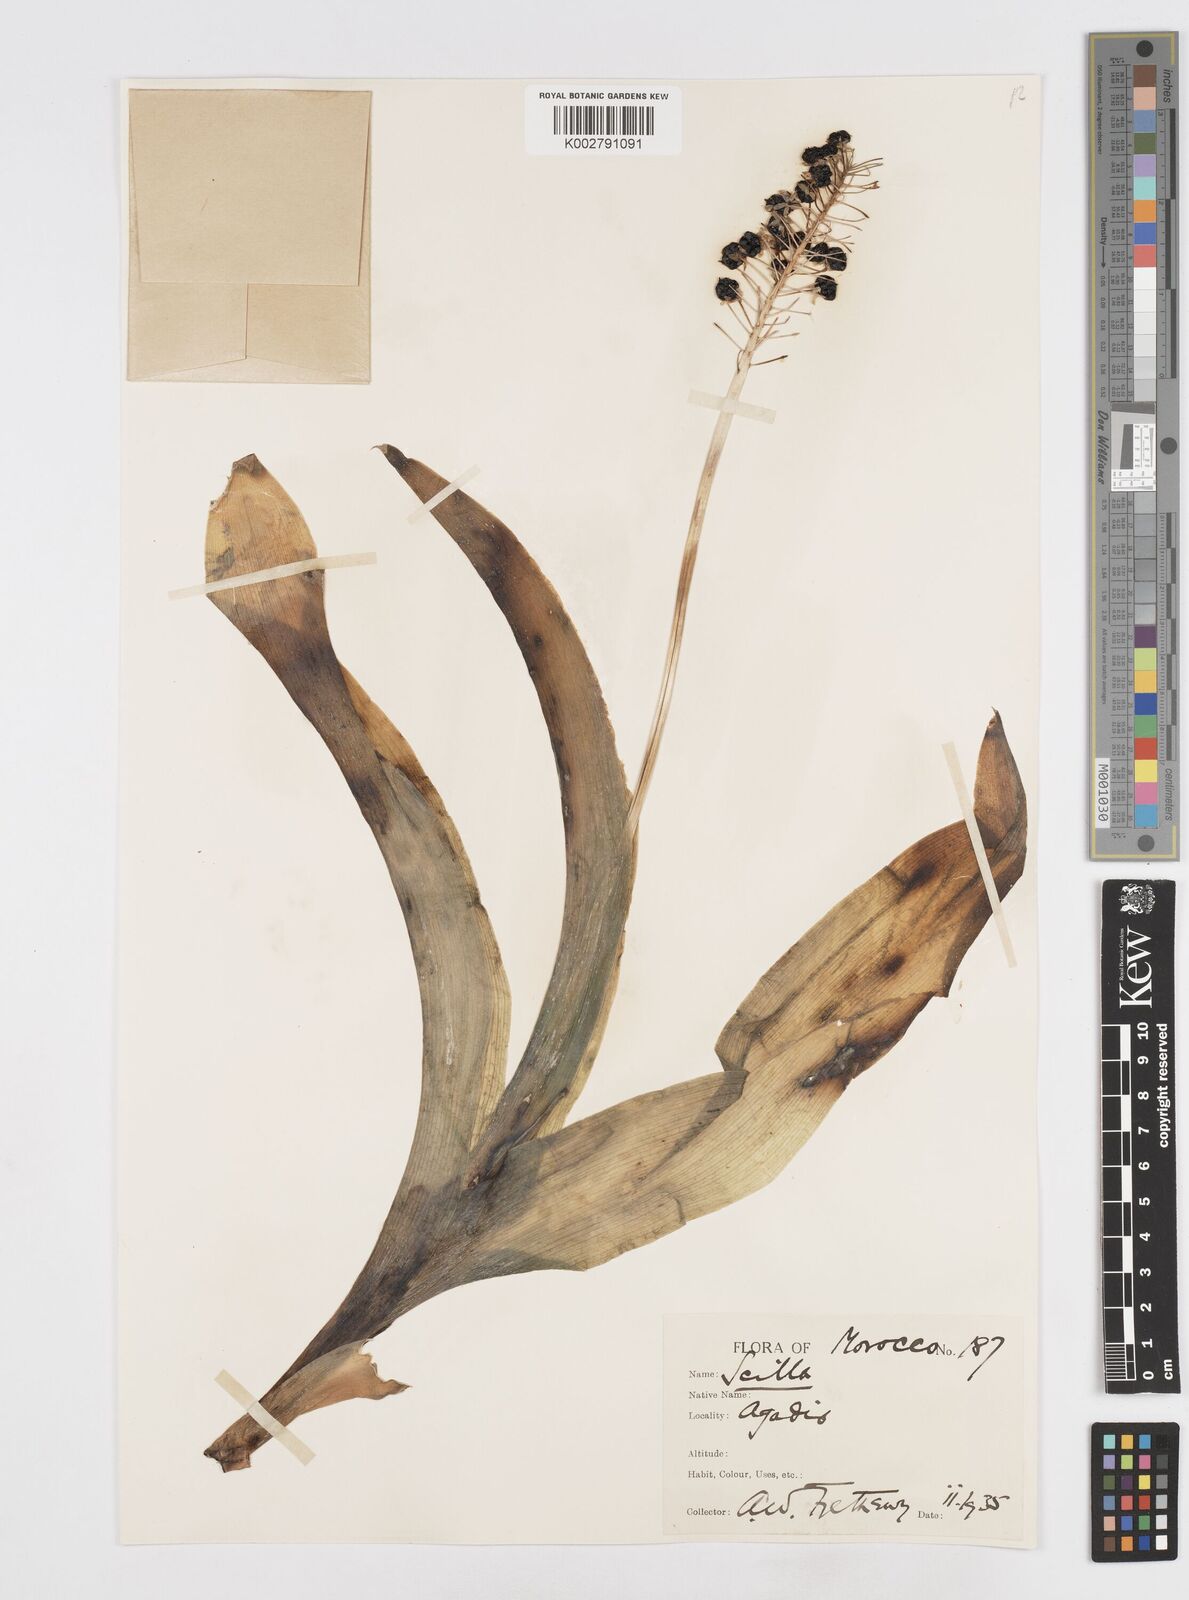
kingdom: Plantae
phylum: Tracheophyta
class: Liliopsida
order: Asparagales
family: Asparagaceae
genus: Scilla
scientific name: Scilla latifolia
